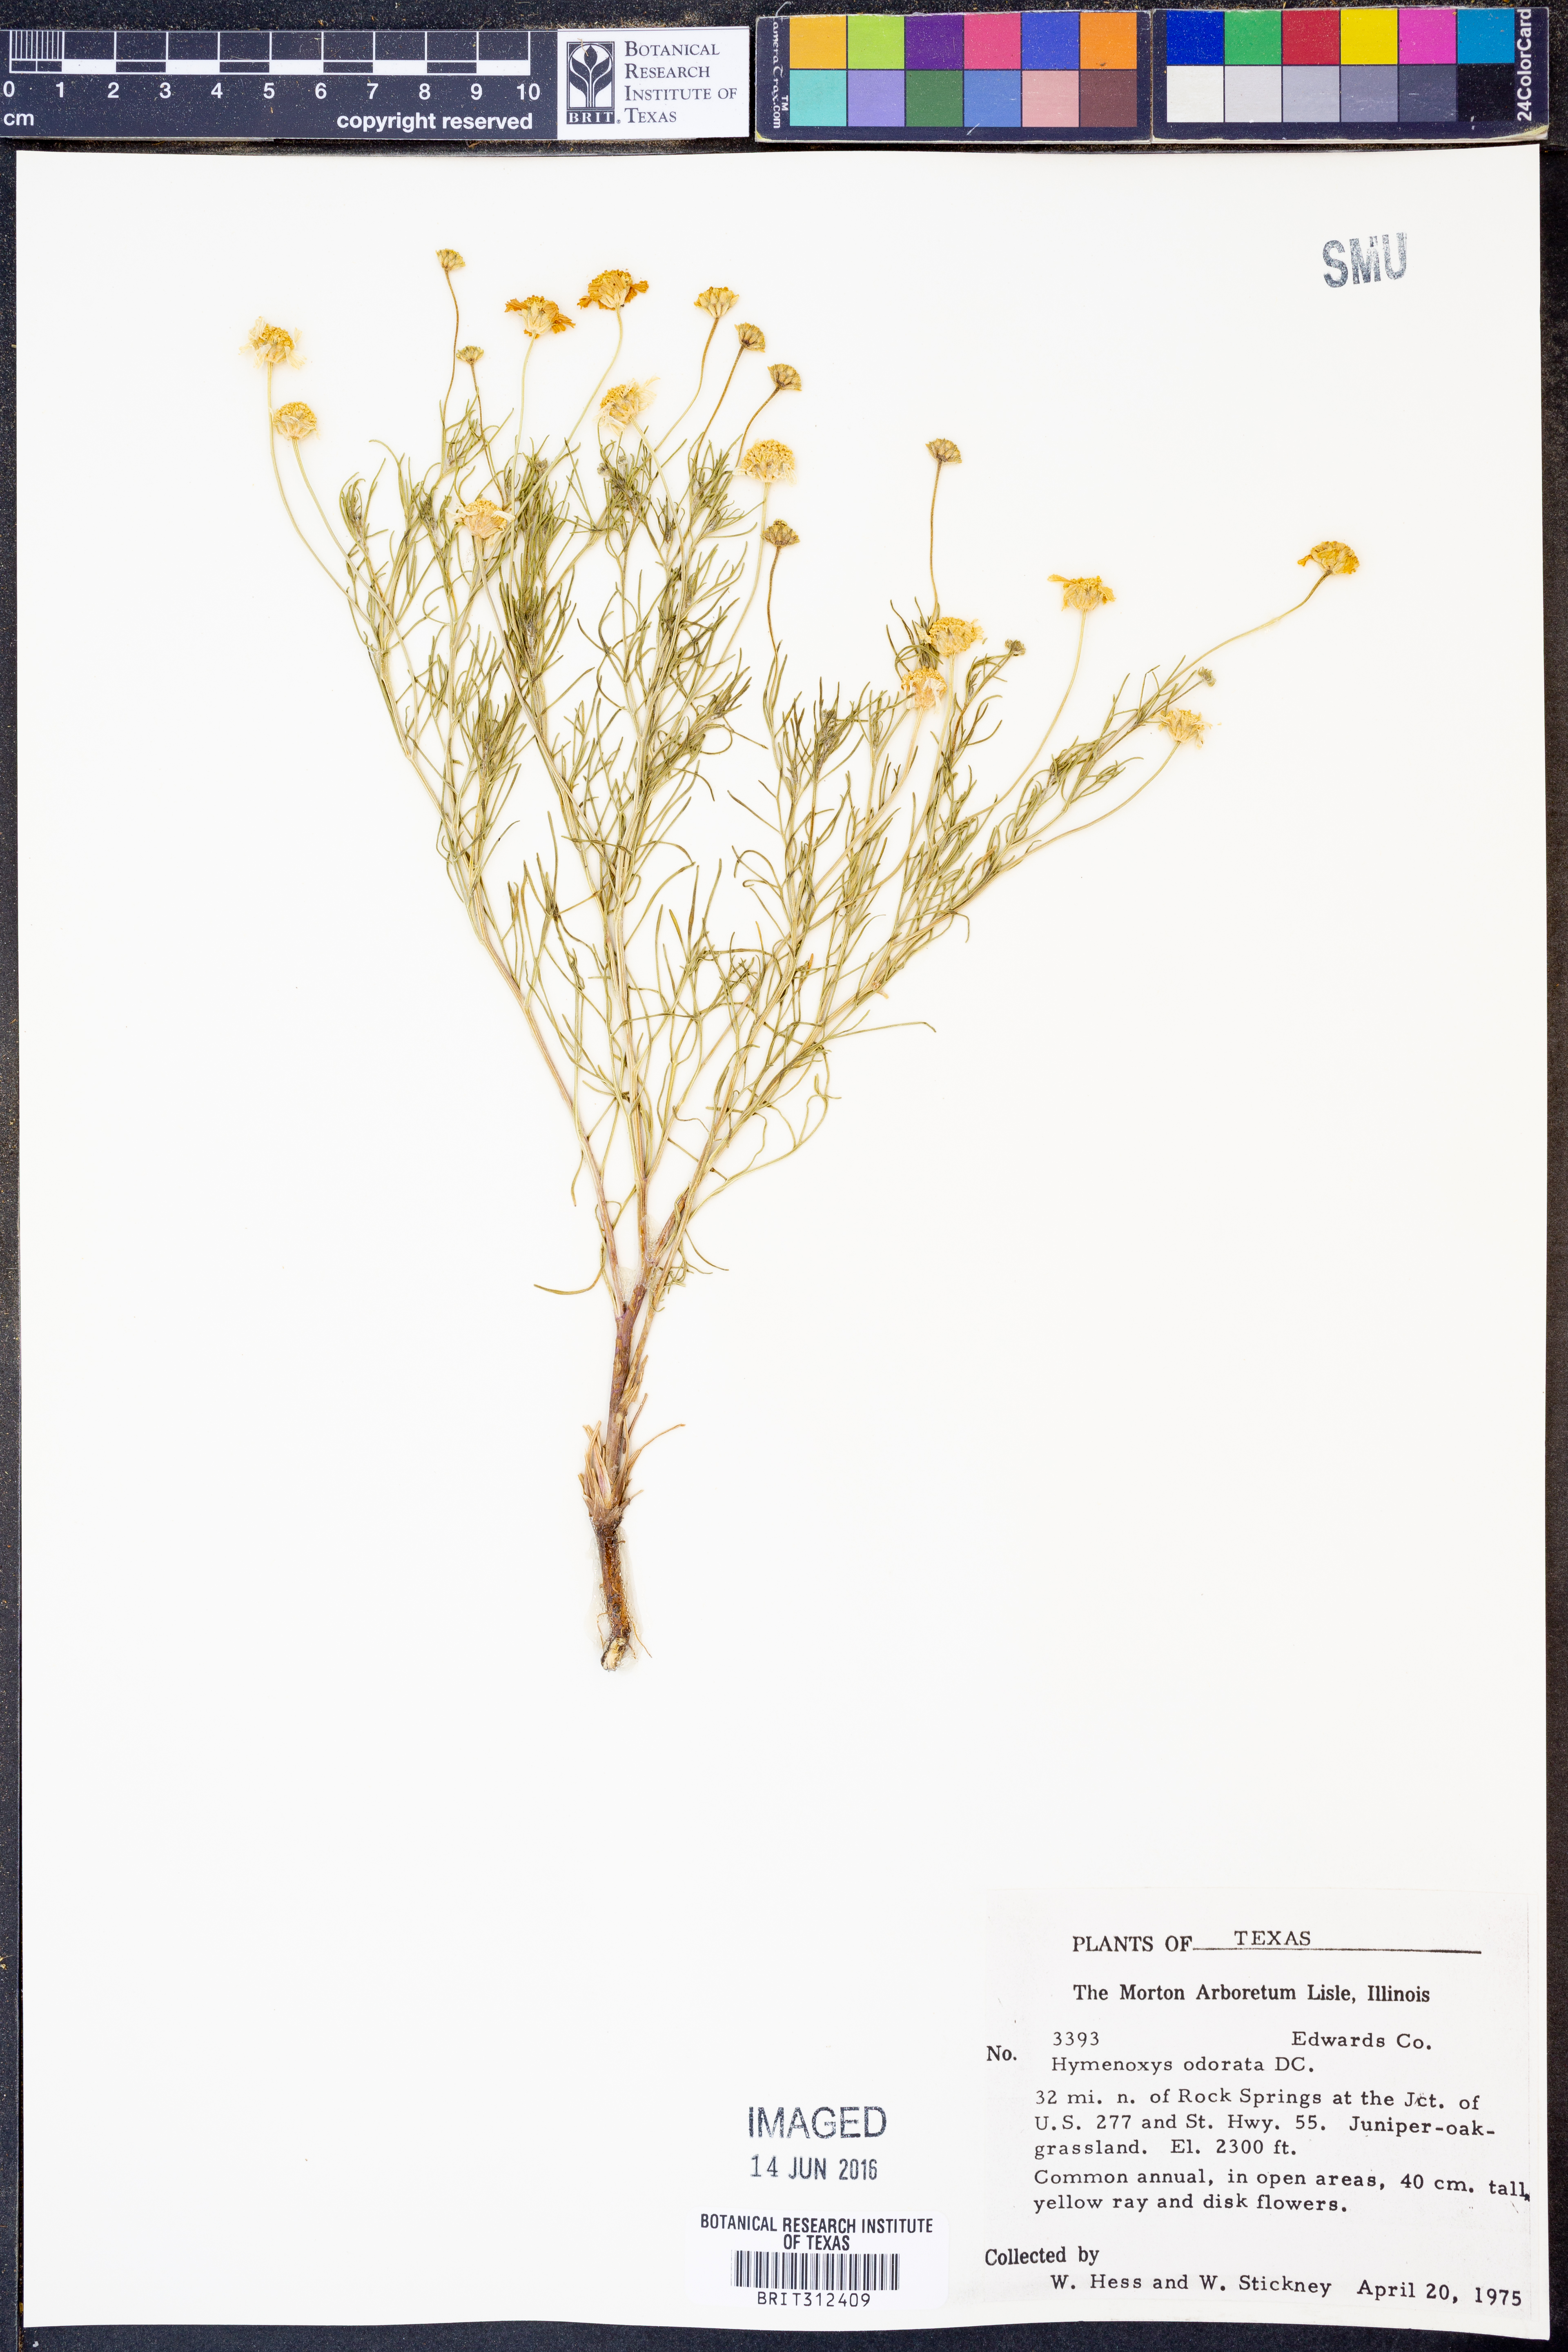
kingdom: Plantae
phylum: Tracheophyta
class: Magnoliopsida
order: Asterales
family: Asteraceae
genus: Hymenoxys
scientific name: Hymenoxys odorata
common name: Bitter rubberweed
